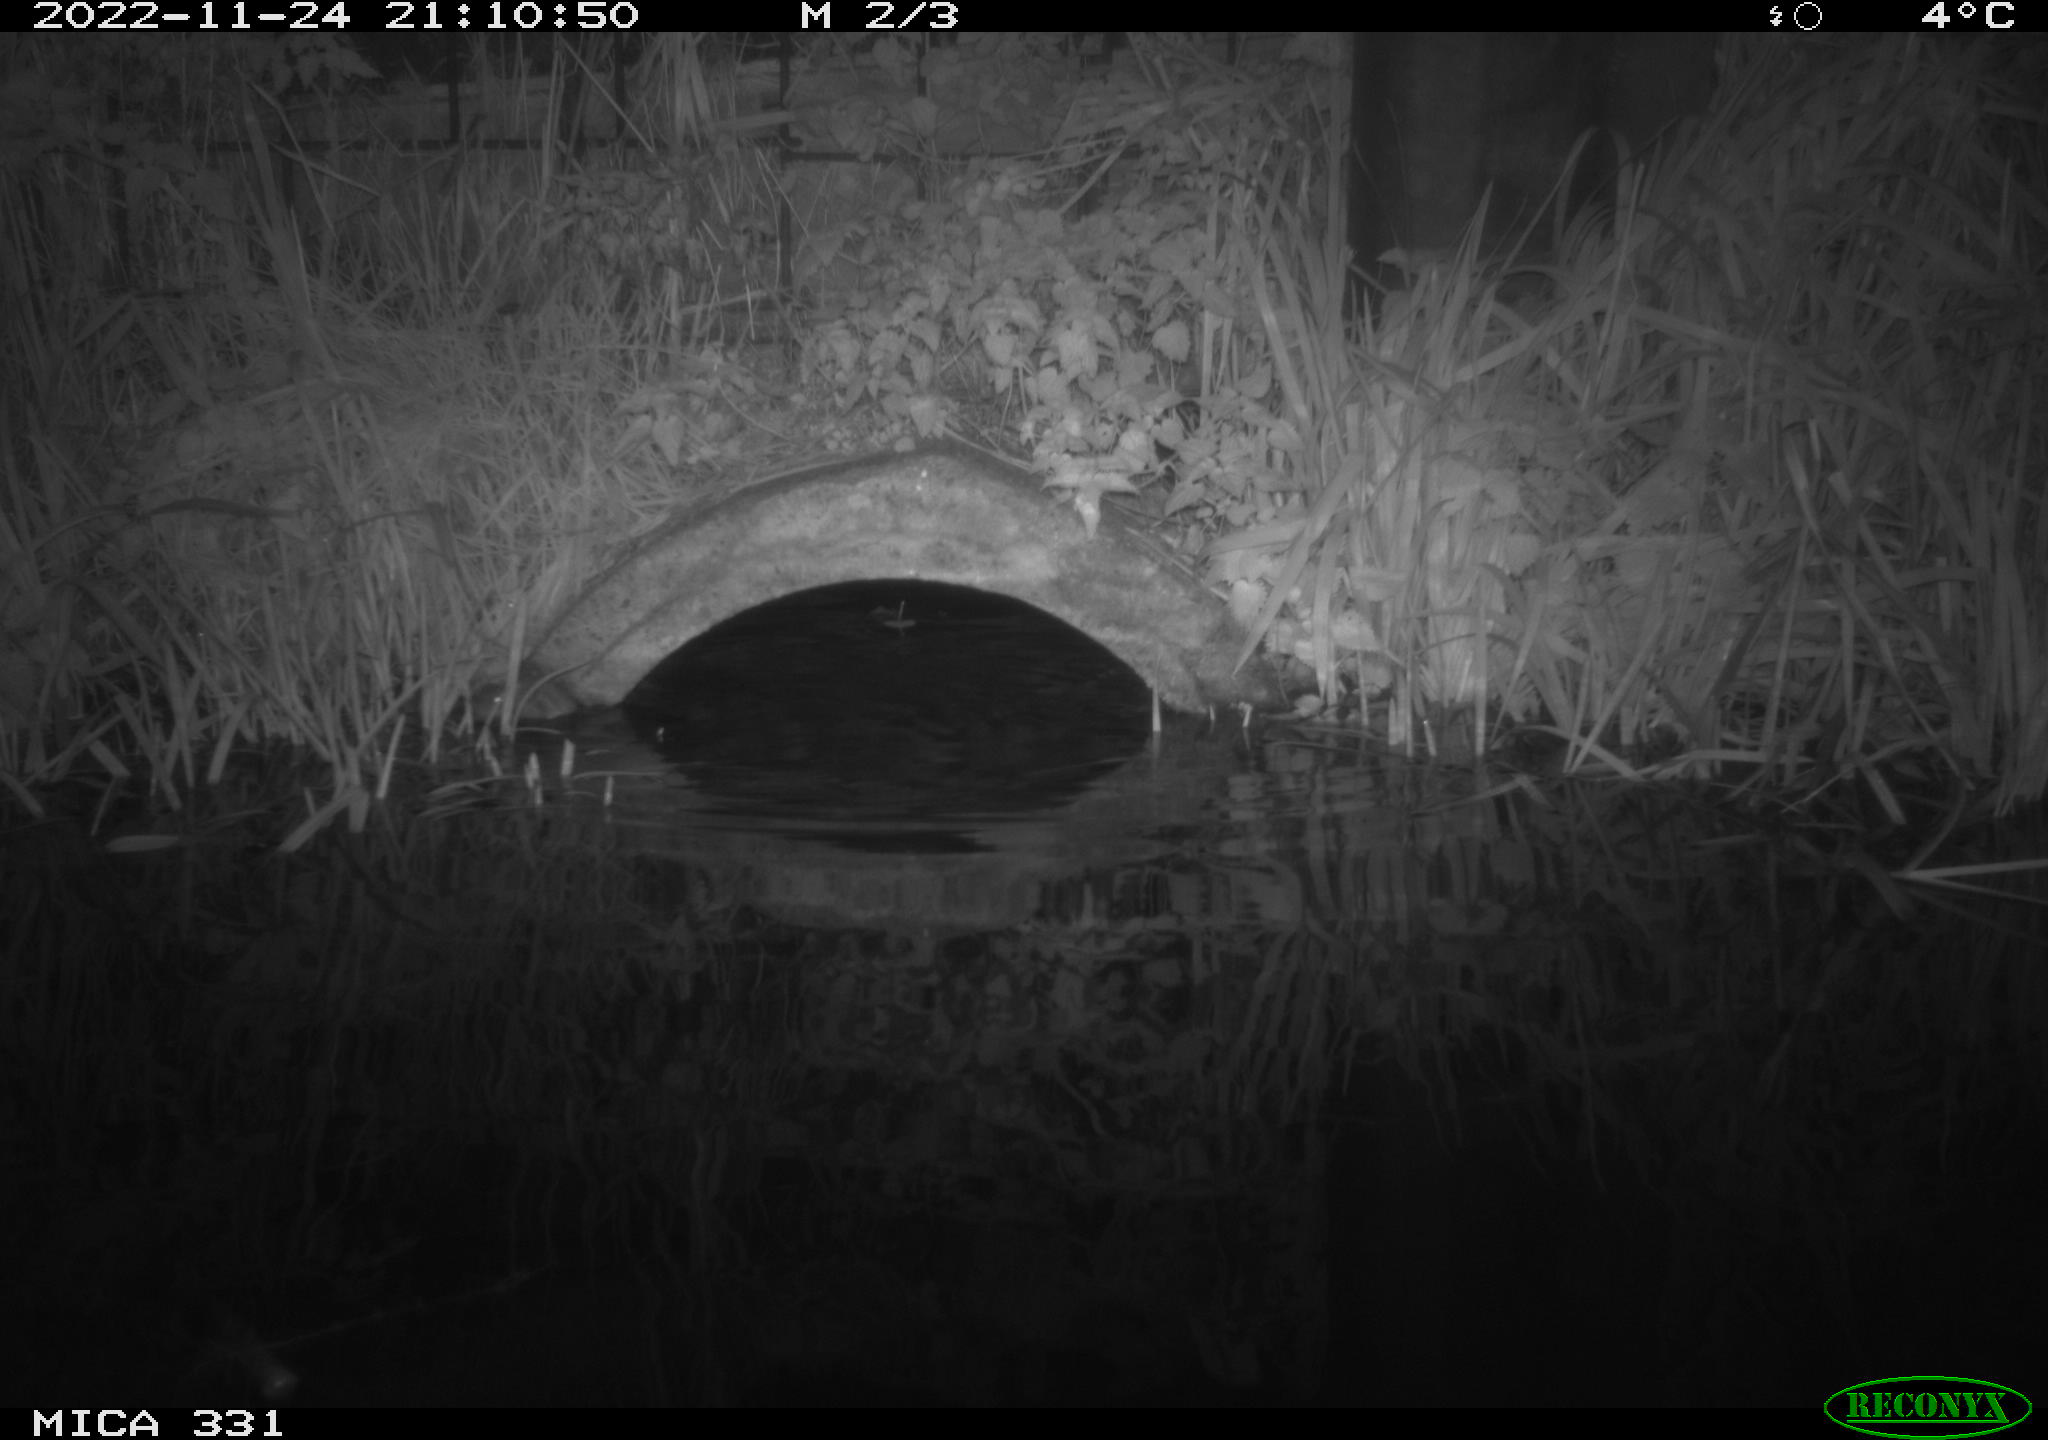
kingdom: Animalia
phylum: Chordata
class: Mammalia
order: Rodentia
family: Muridae
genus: Rattus
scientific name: Rattus norvegicus
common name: Brown rat
